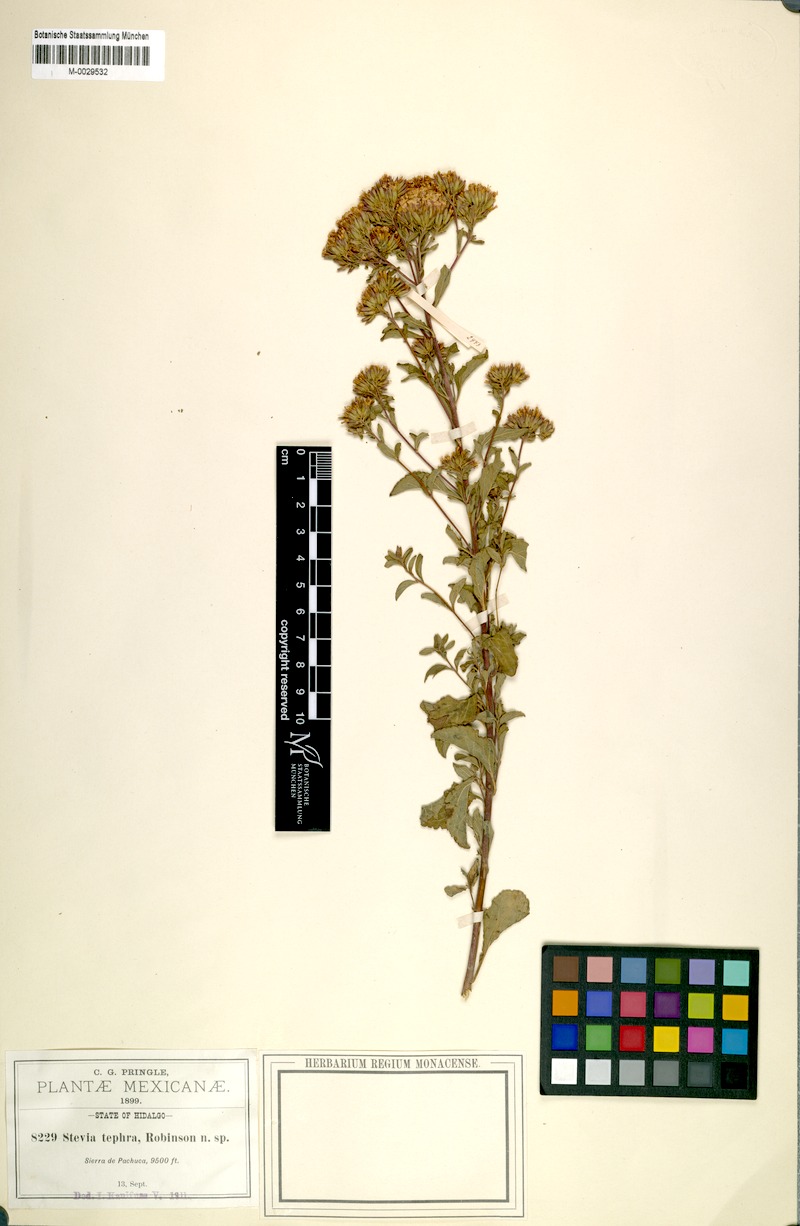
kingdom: Plantae
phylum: Tracheophyta
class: Magnoliopsida
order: Asterales
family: Asteraceae
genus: Stevia
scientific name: Stevia tephra
